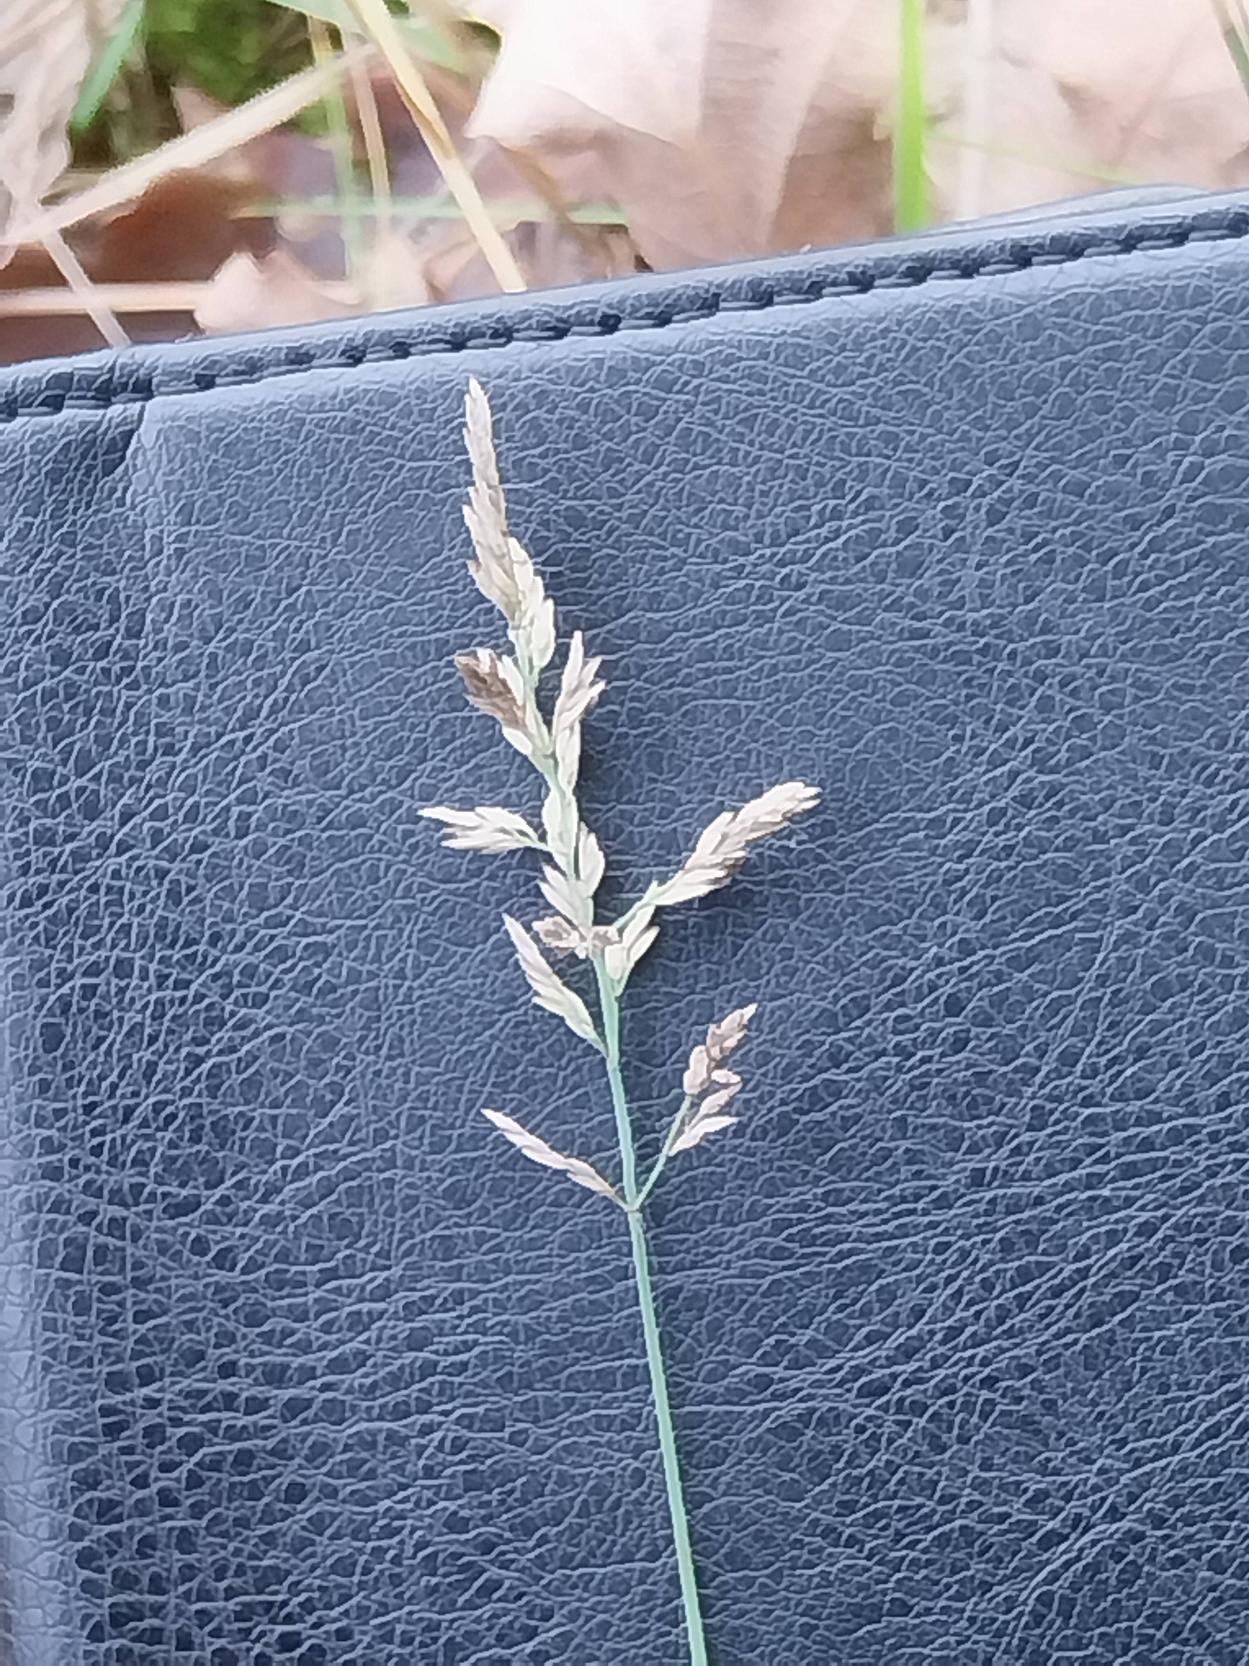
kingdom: Plantae
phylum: Tracheophyta
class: Liliopsida
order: Poales
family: Poaceae
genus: Poa
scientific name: Poa compressa
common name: Fladstrået rapgræs
